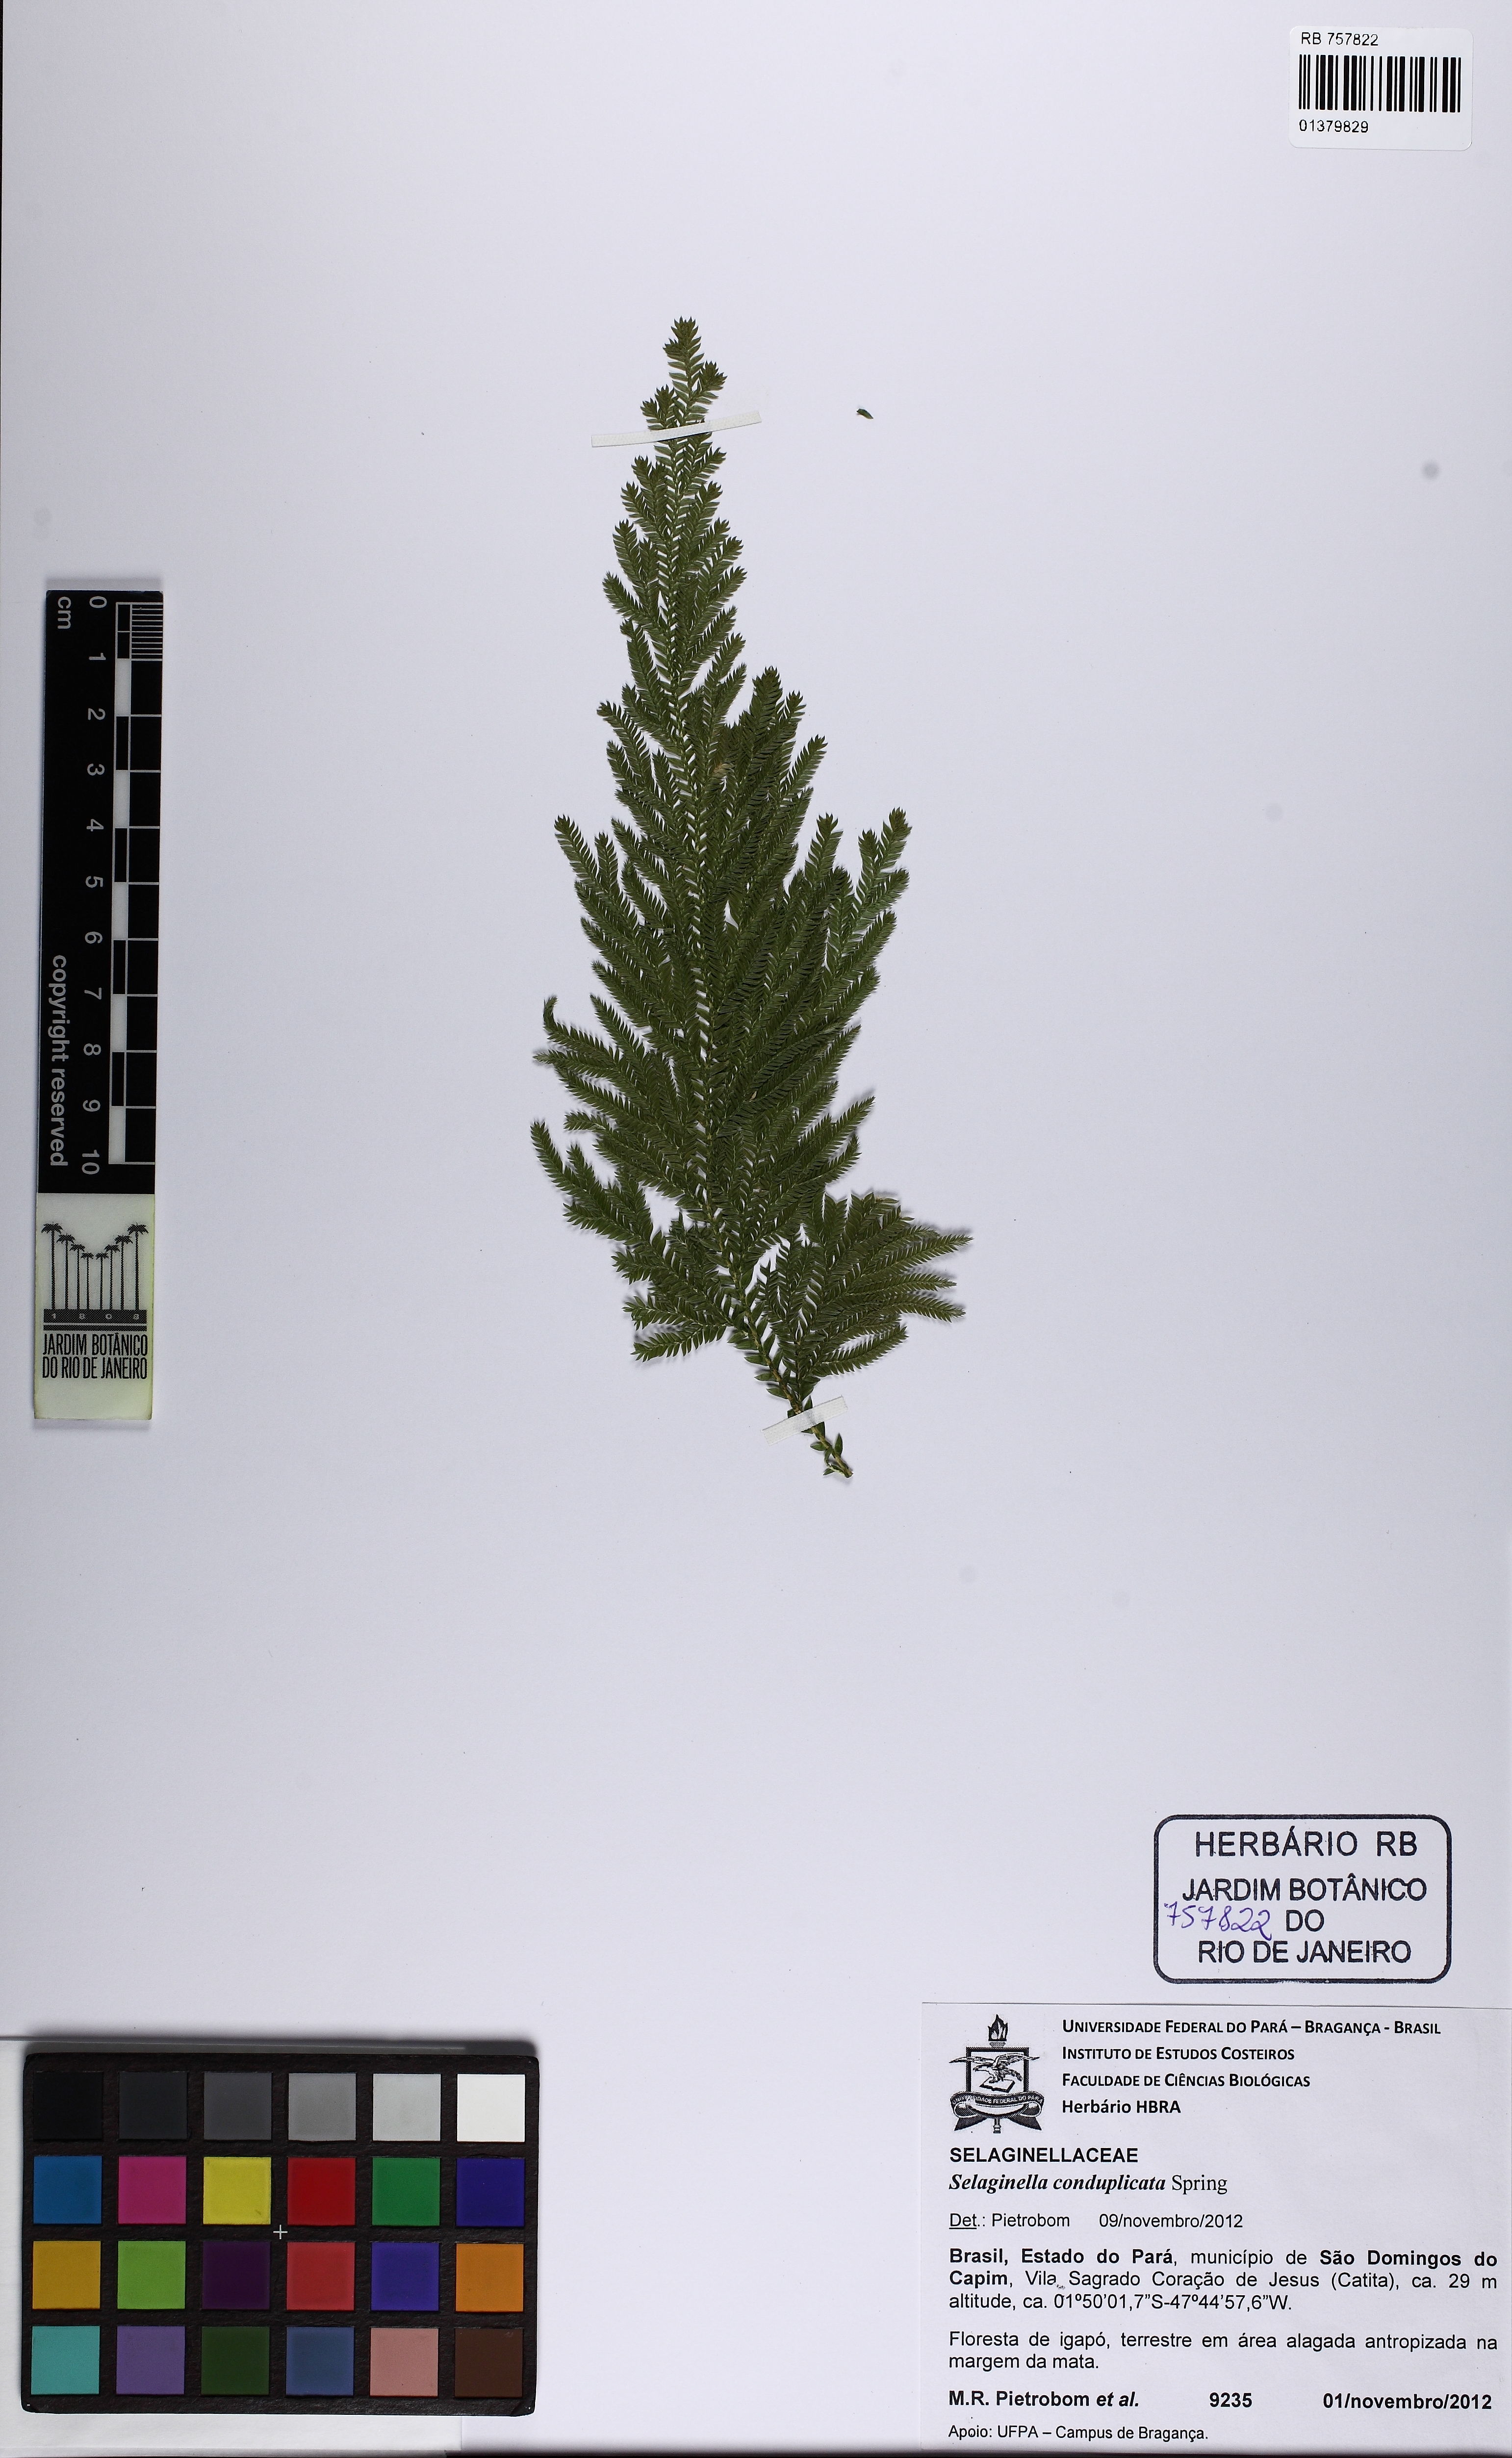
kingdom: Plantae
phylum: Tracheophyta
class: Lycopodiopsida
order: Selaginellales
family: Selaginellaceae
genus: Selaginella
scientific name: Selaginella conduplicata
